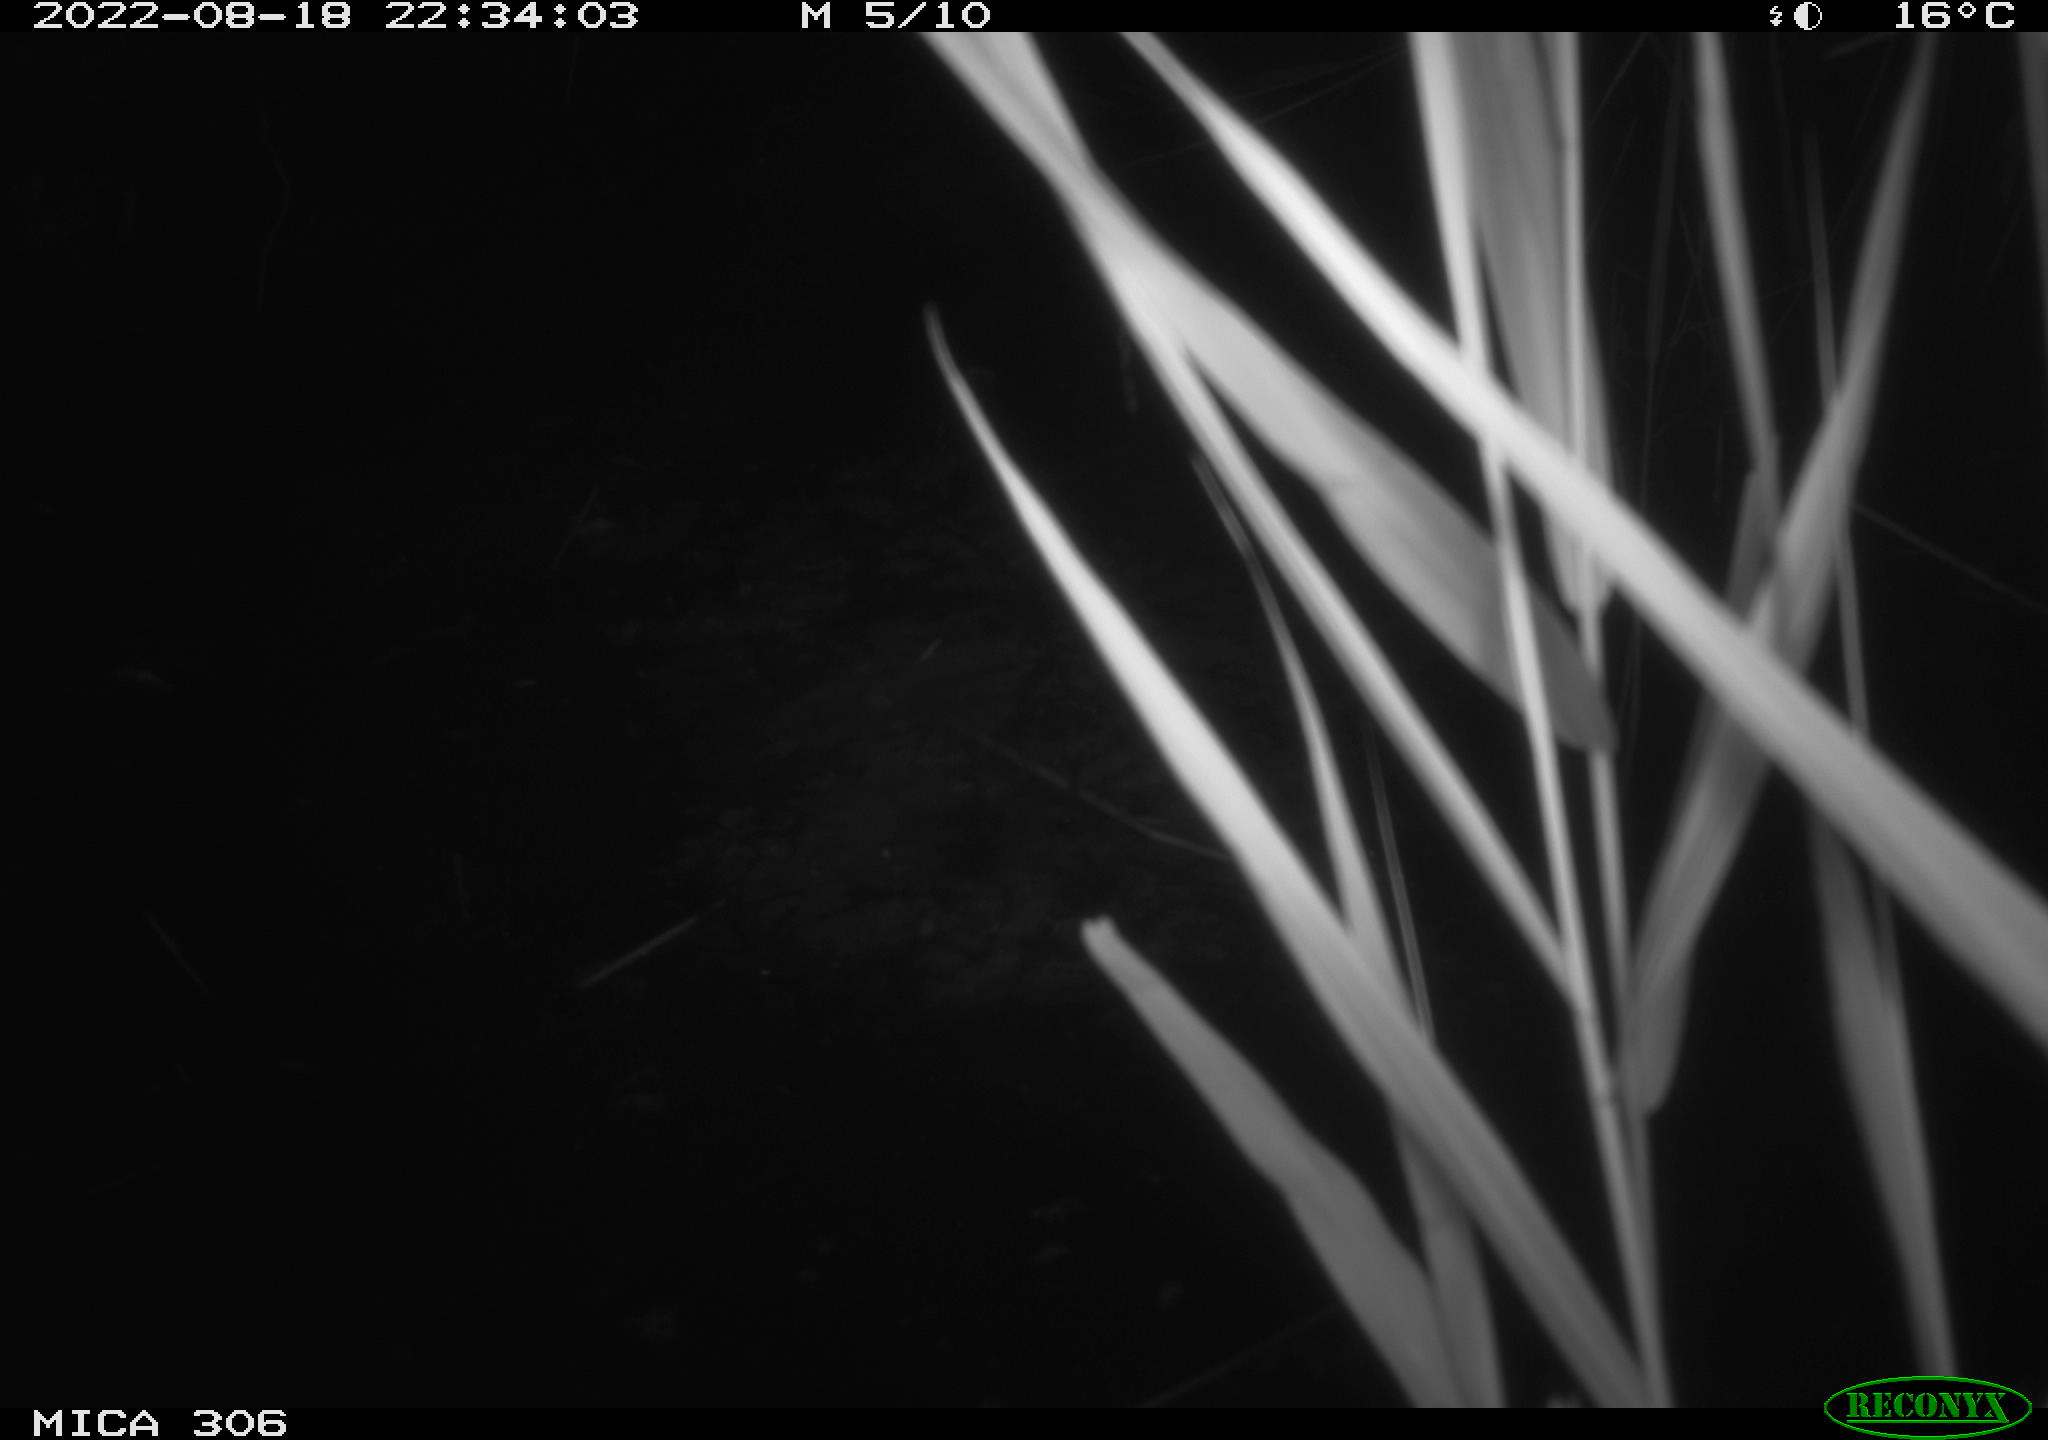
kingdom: Animalia
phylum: Chordata
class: Mammalia
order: Rodentia
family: Muridae
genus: Rattus
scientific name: Rattus norvegicus
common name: Brown rat
